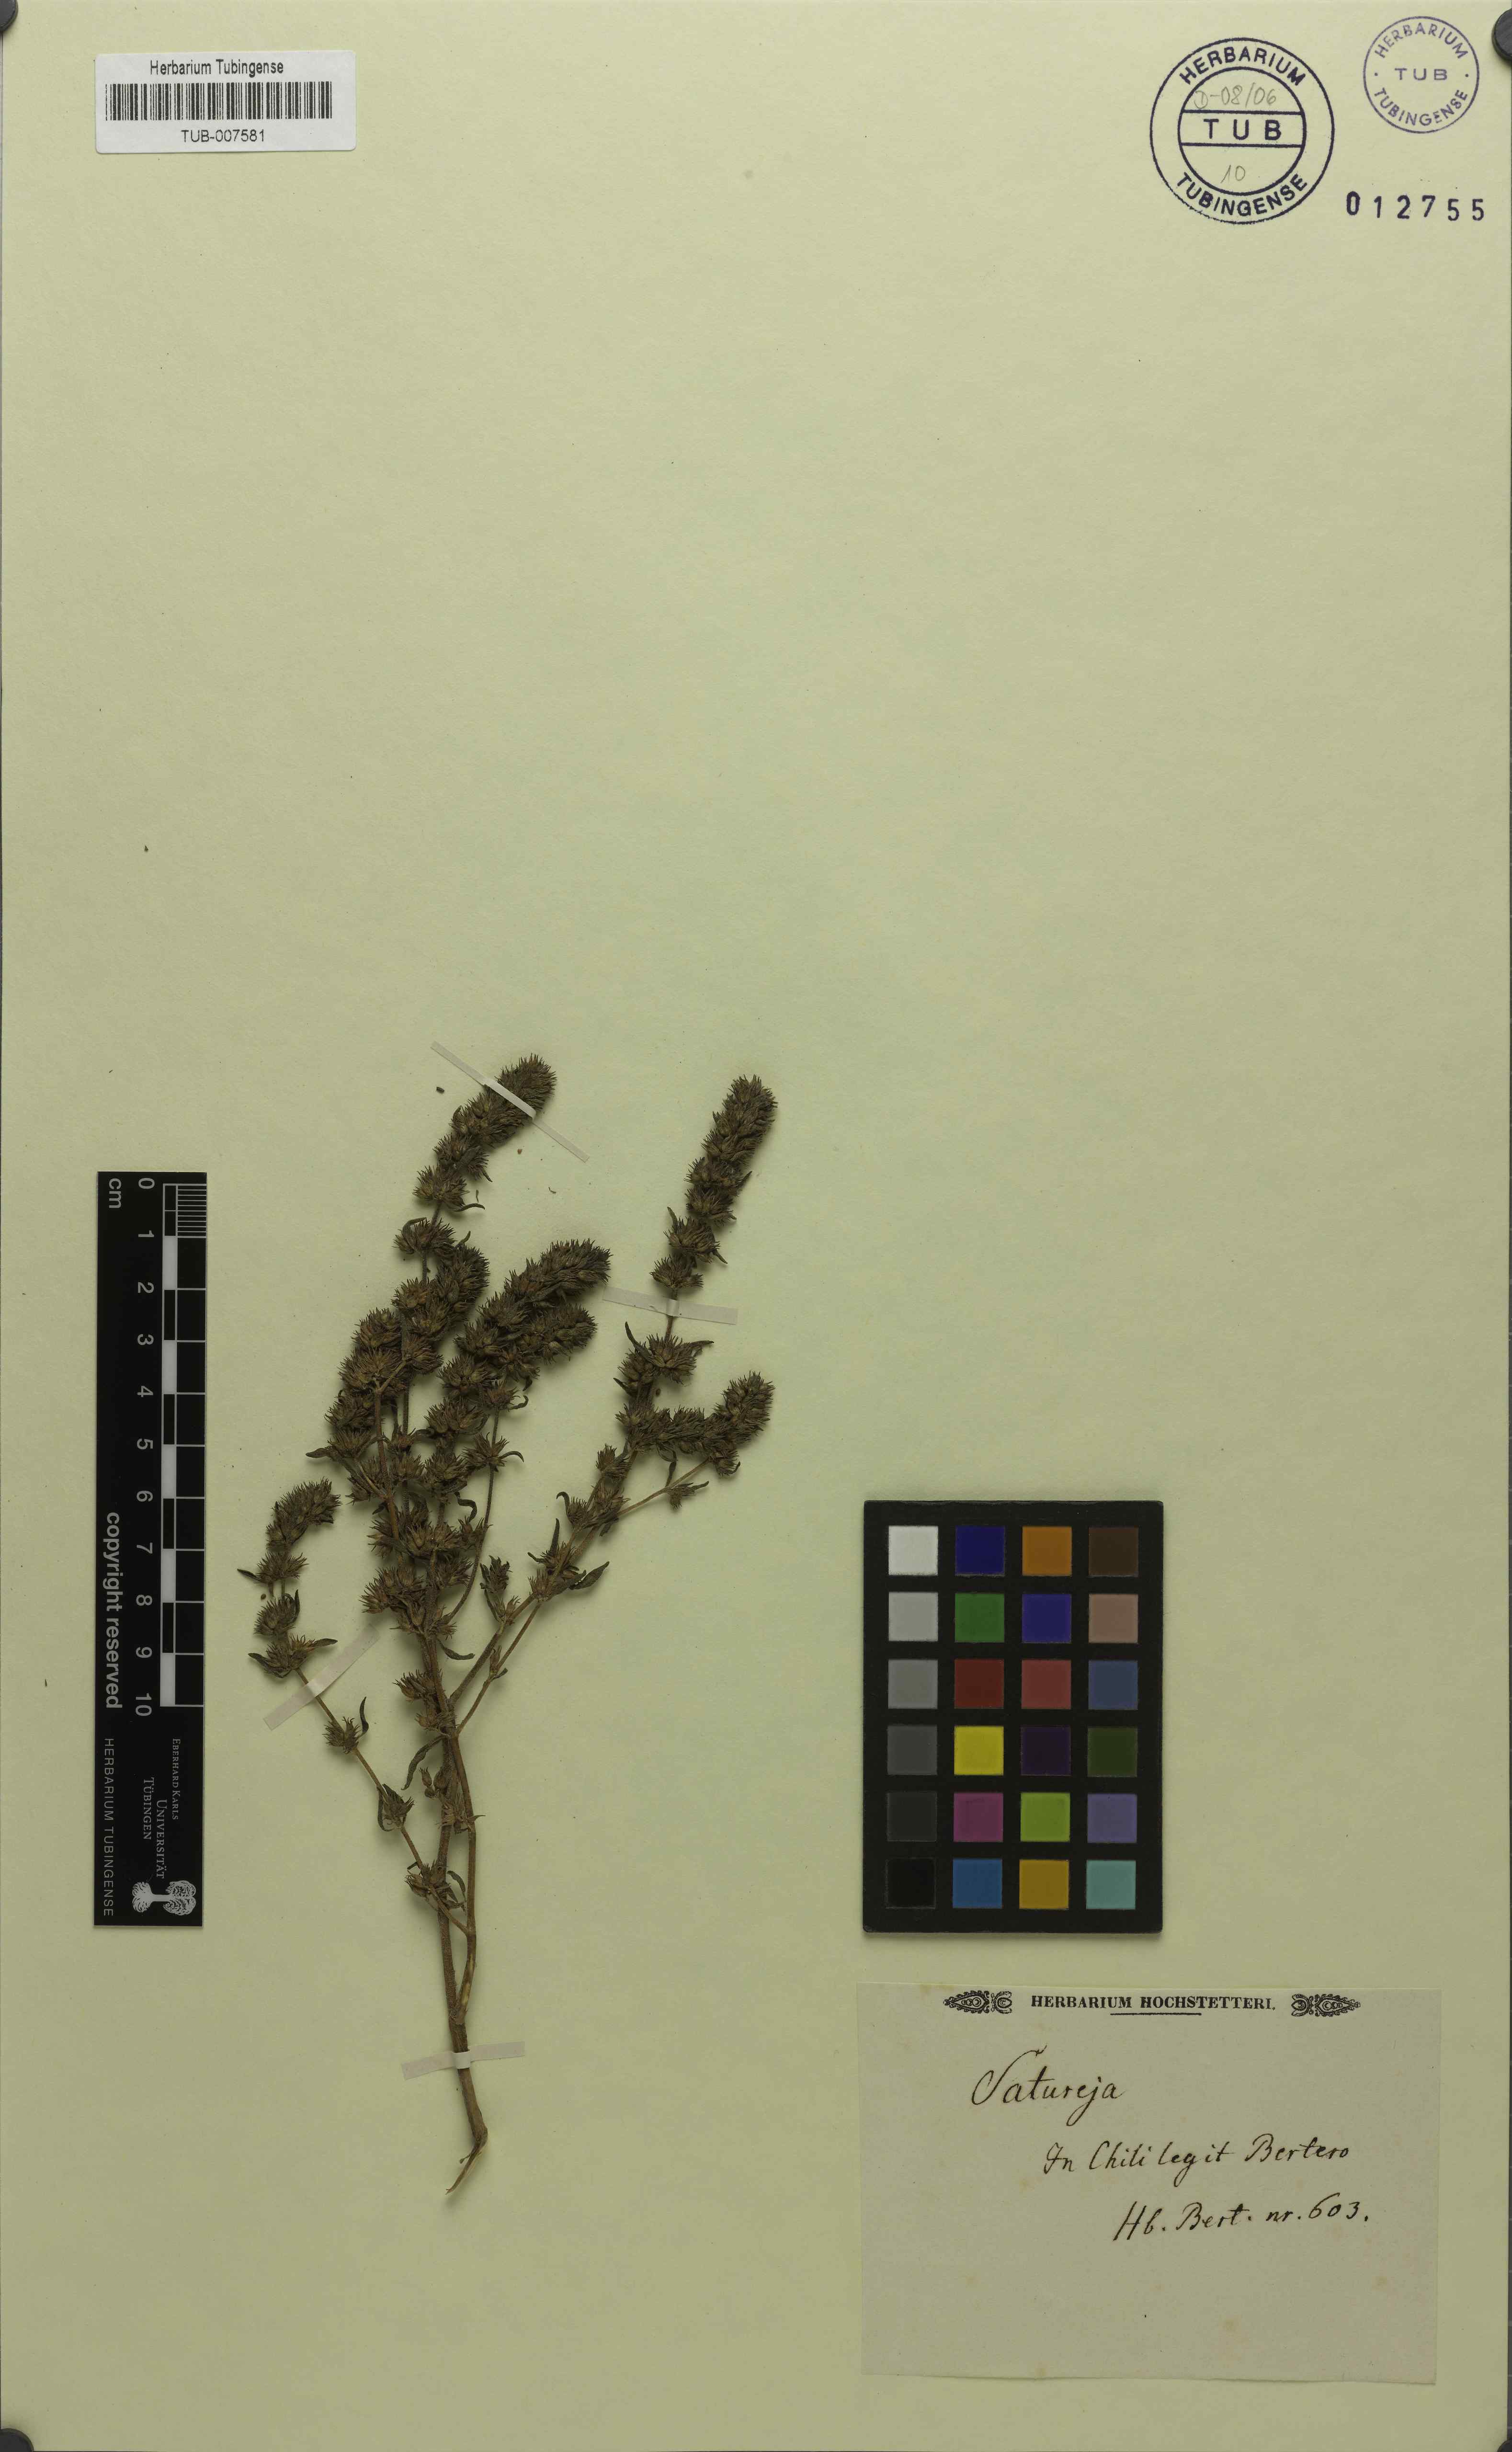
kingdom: Plantae
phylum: Tracheophyta
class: Magnoliopsida
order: Lamiales
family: Lamiaceae
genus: Satureja
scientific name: Satureja hortensis
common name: Summer savory
